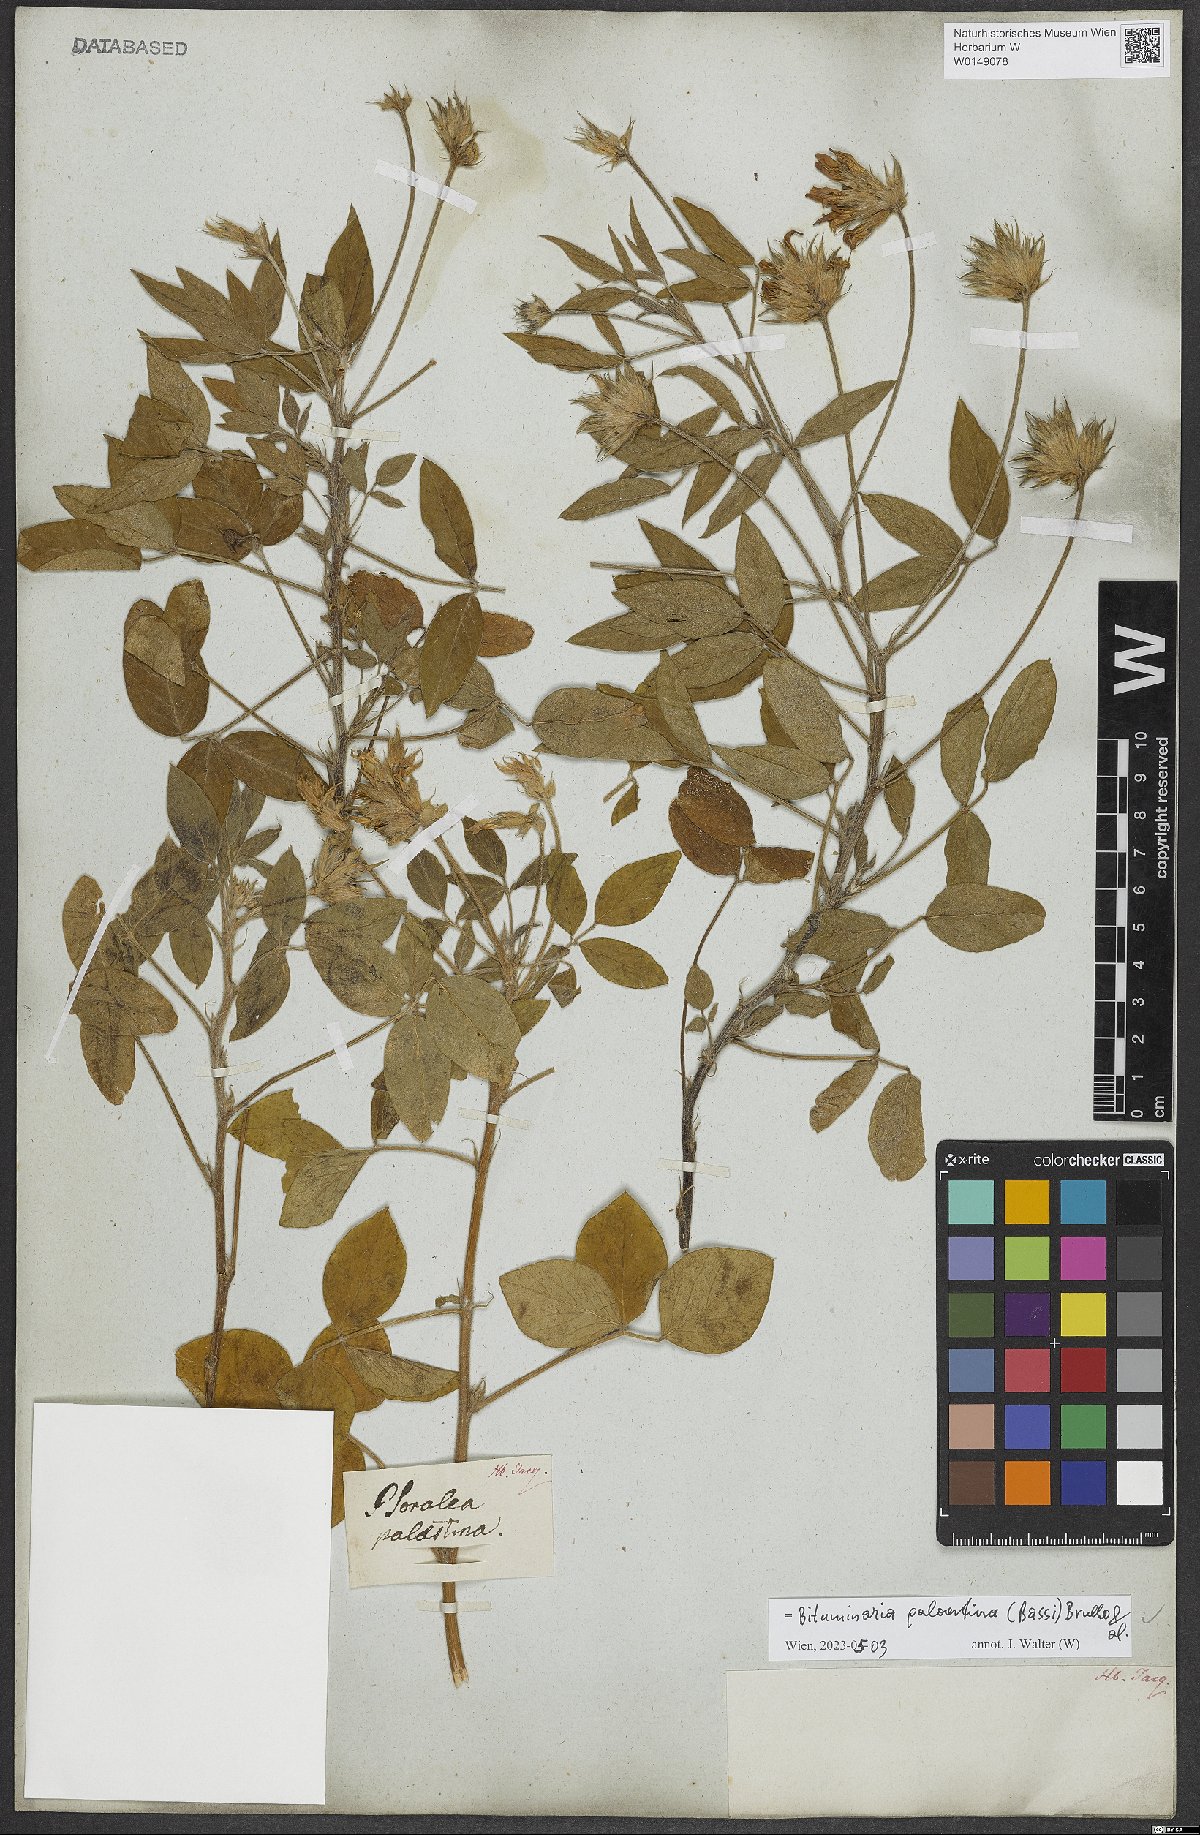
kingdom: Plantae
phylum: Tracheophyta
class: Magnoliopsida
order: Fabales
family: Fabaceae
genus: Bituminaria
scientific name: Bituminaria palaestina
